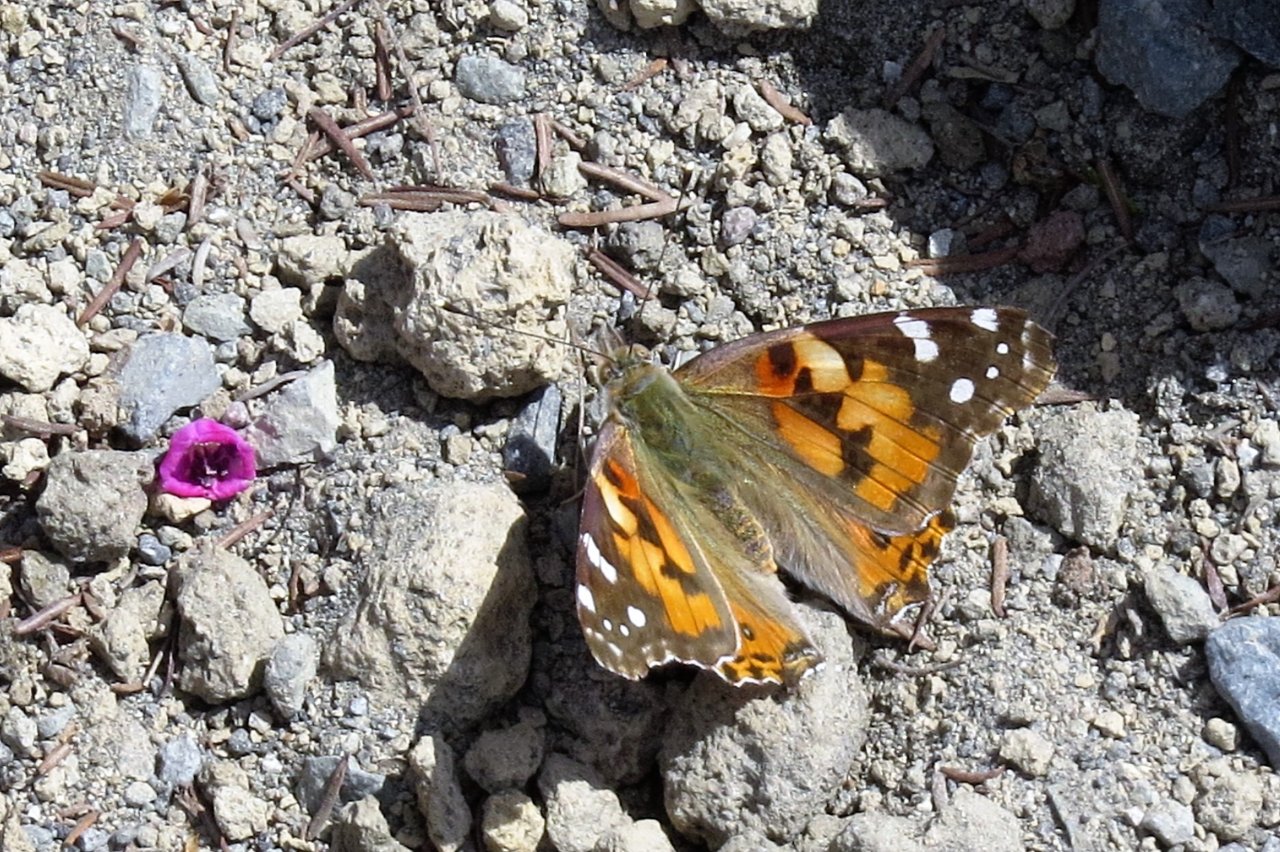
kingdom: Animalia
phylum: Arthropoda
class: Insecta
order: Lepidoptera
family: Nymphalidae
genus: Vanessa
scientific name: Vanessa cardui
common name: Painted Lady
